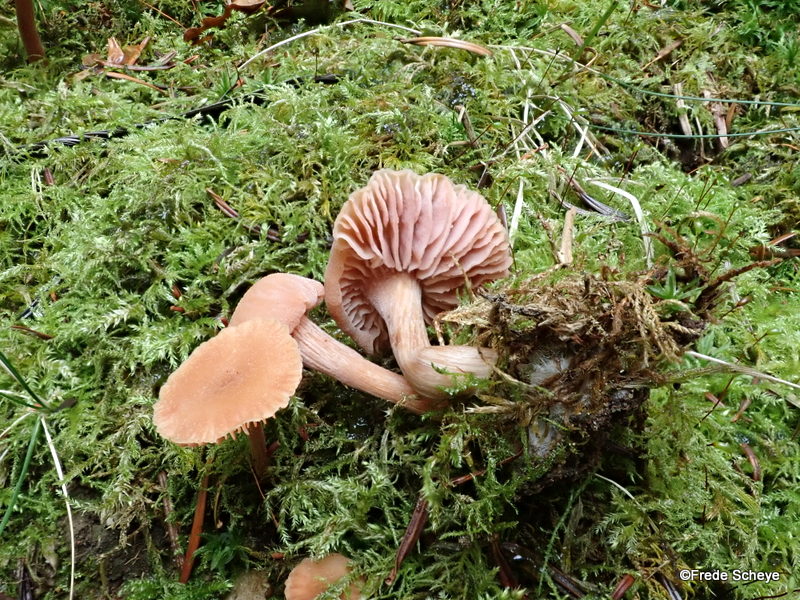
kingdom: Fungi
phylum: Basidiomycota
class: Agaricomycetes
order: Agaricales
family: Hydnangiaceae
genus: Laccaria
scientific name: Laccaria laccata
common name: rød ametysthat
